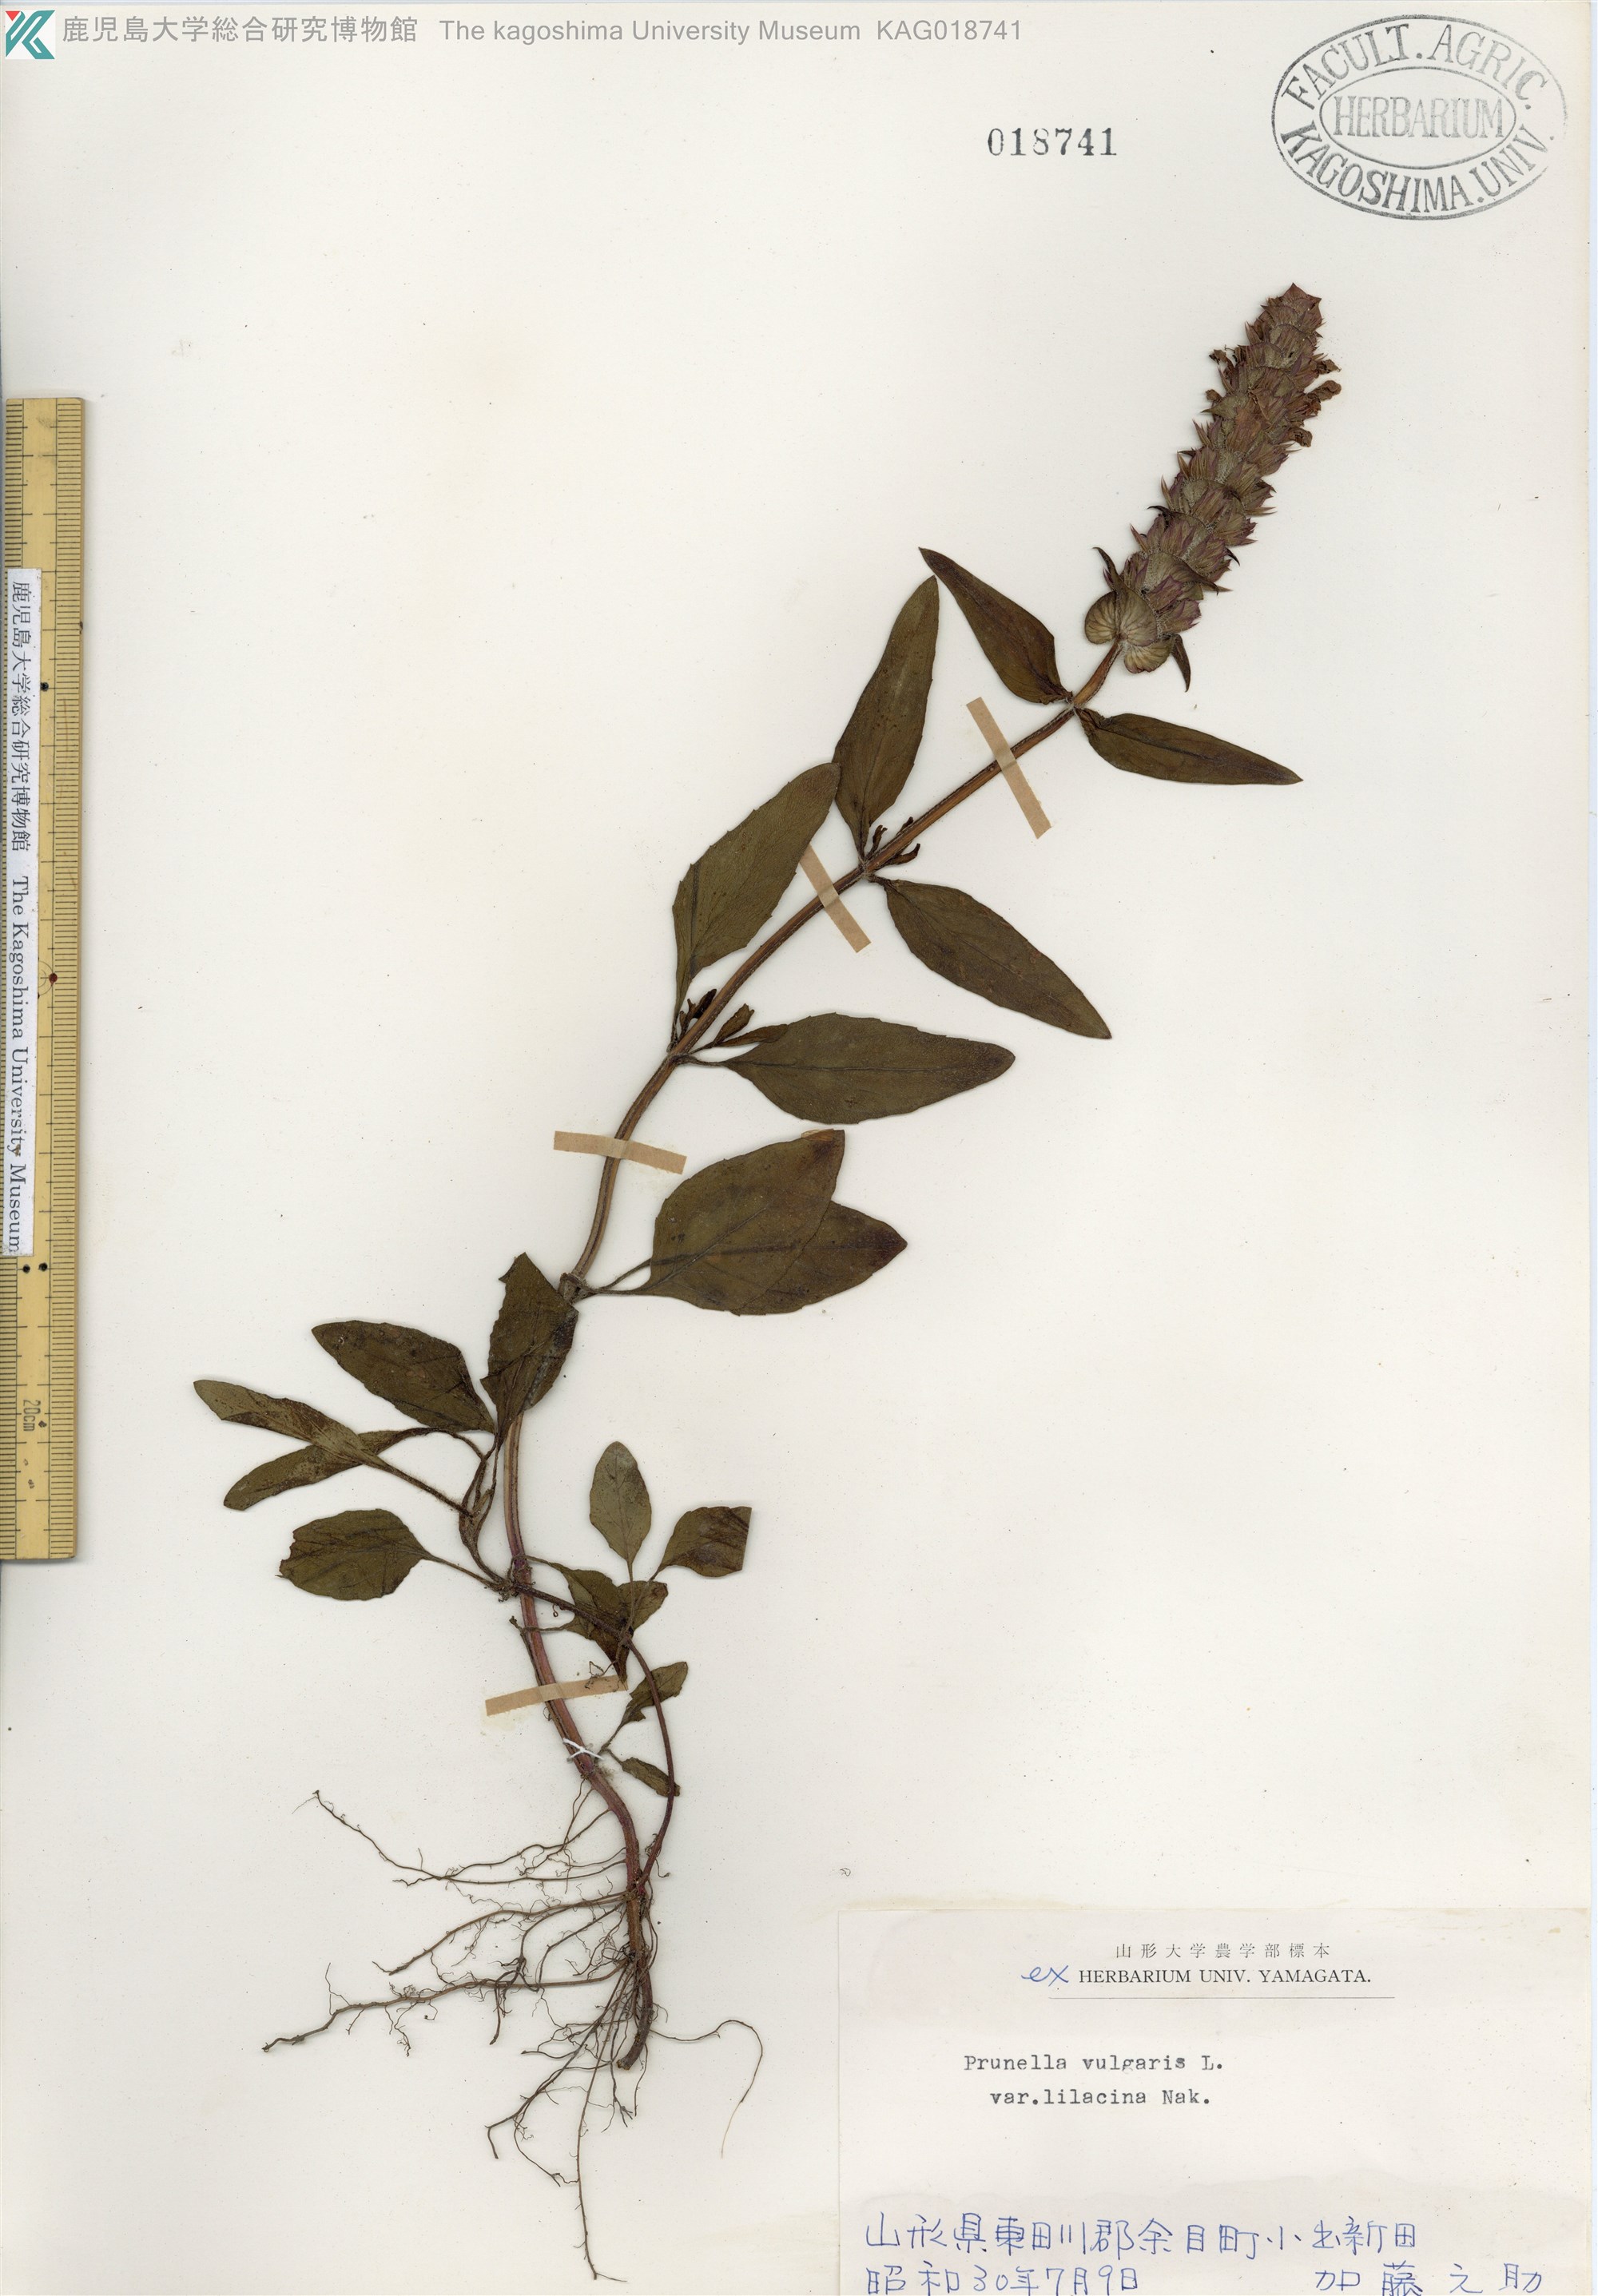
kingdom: Plantae
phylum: Tracheophyta
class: Magnoliopsida
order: Lamiales
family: Lamiaceae
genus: Prunella
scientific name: Prunella vulgaris
